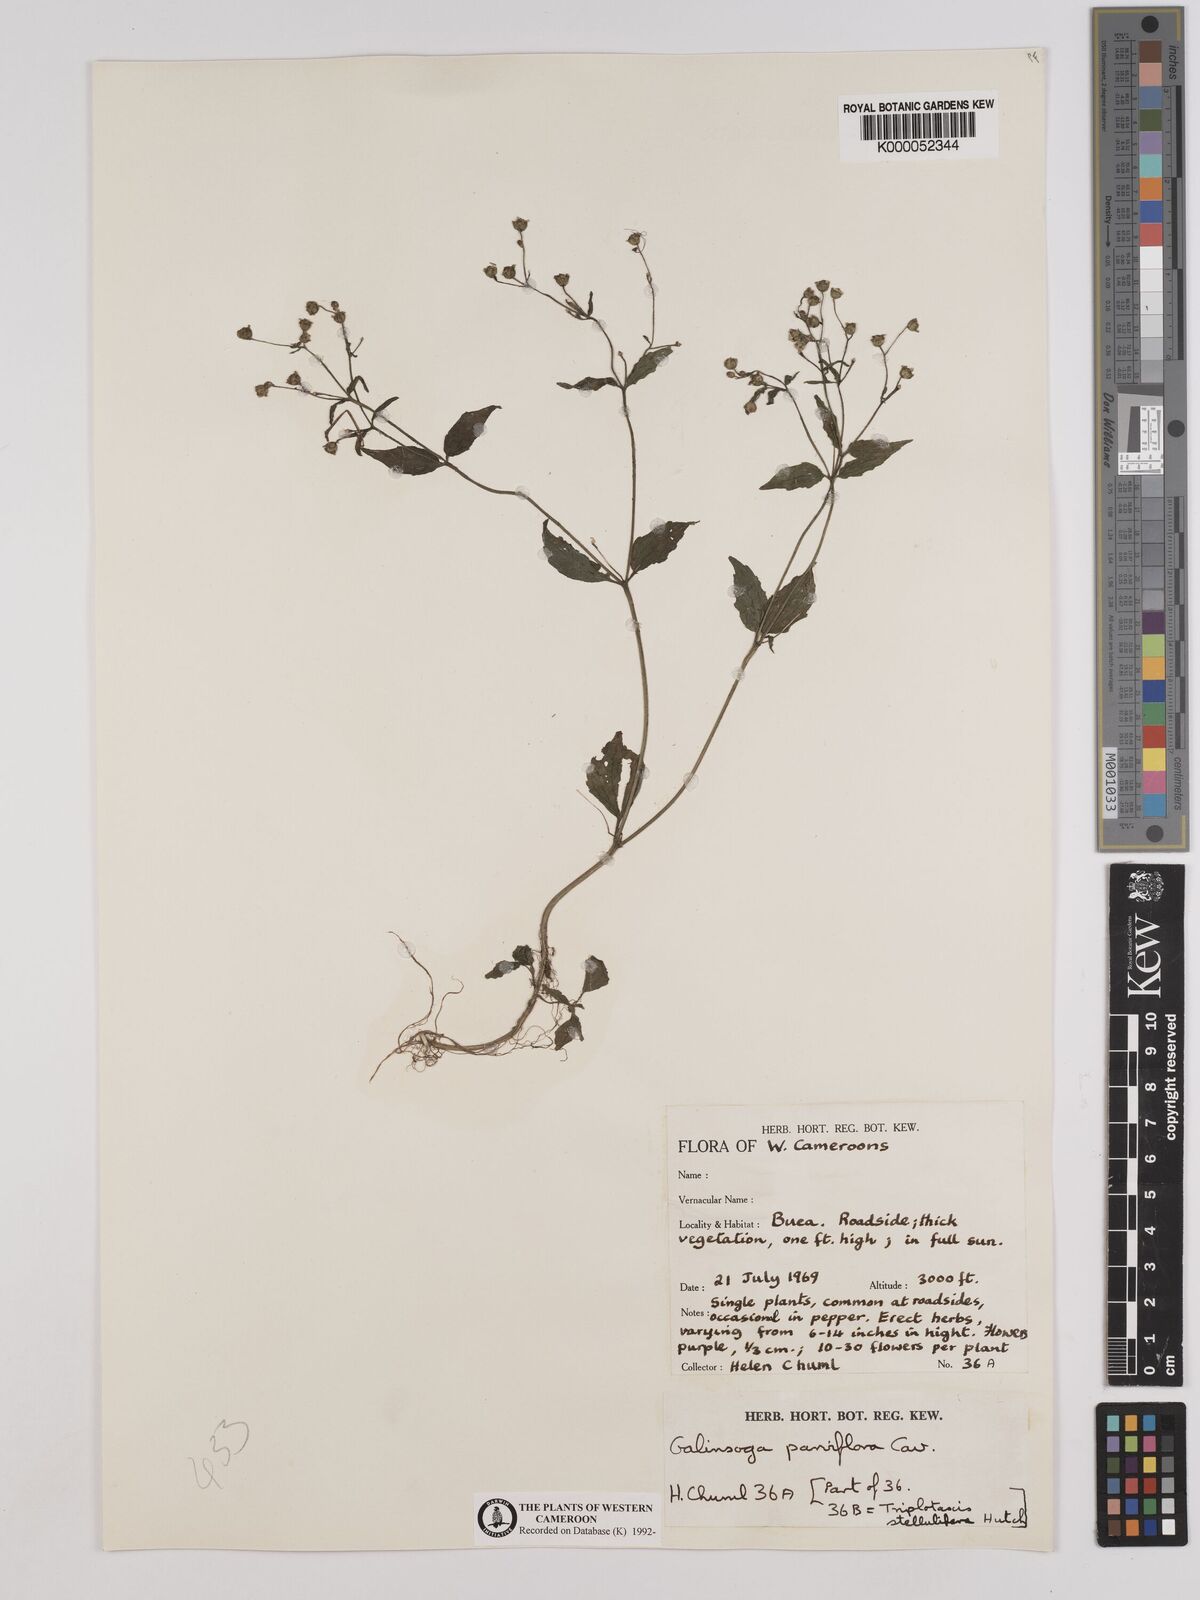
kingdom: Plantae
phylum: Tracheophyta
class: Magnoliopsida
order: Asterales
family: Asteraceae
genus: Galinsoga
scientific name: Galinsoga parviflora
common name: Gallant soldier
